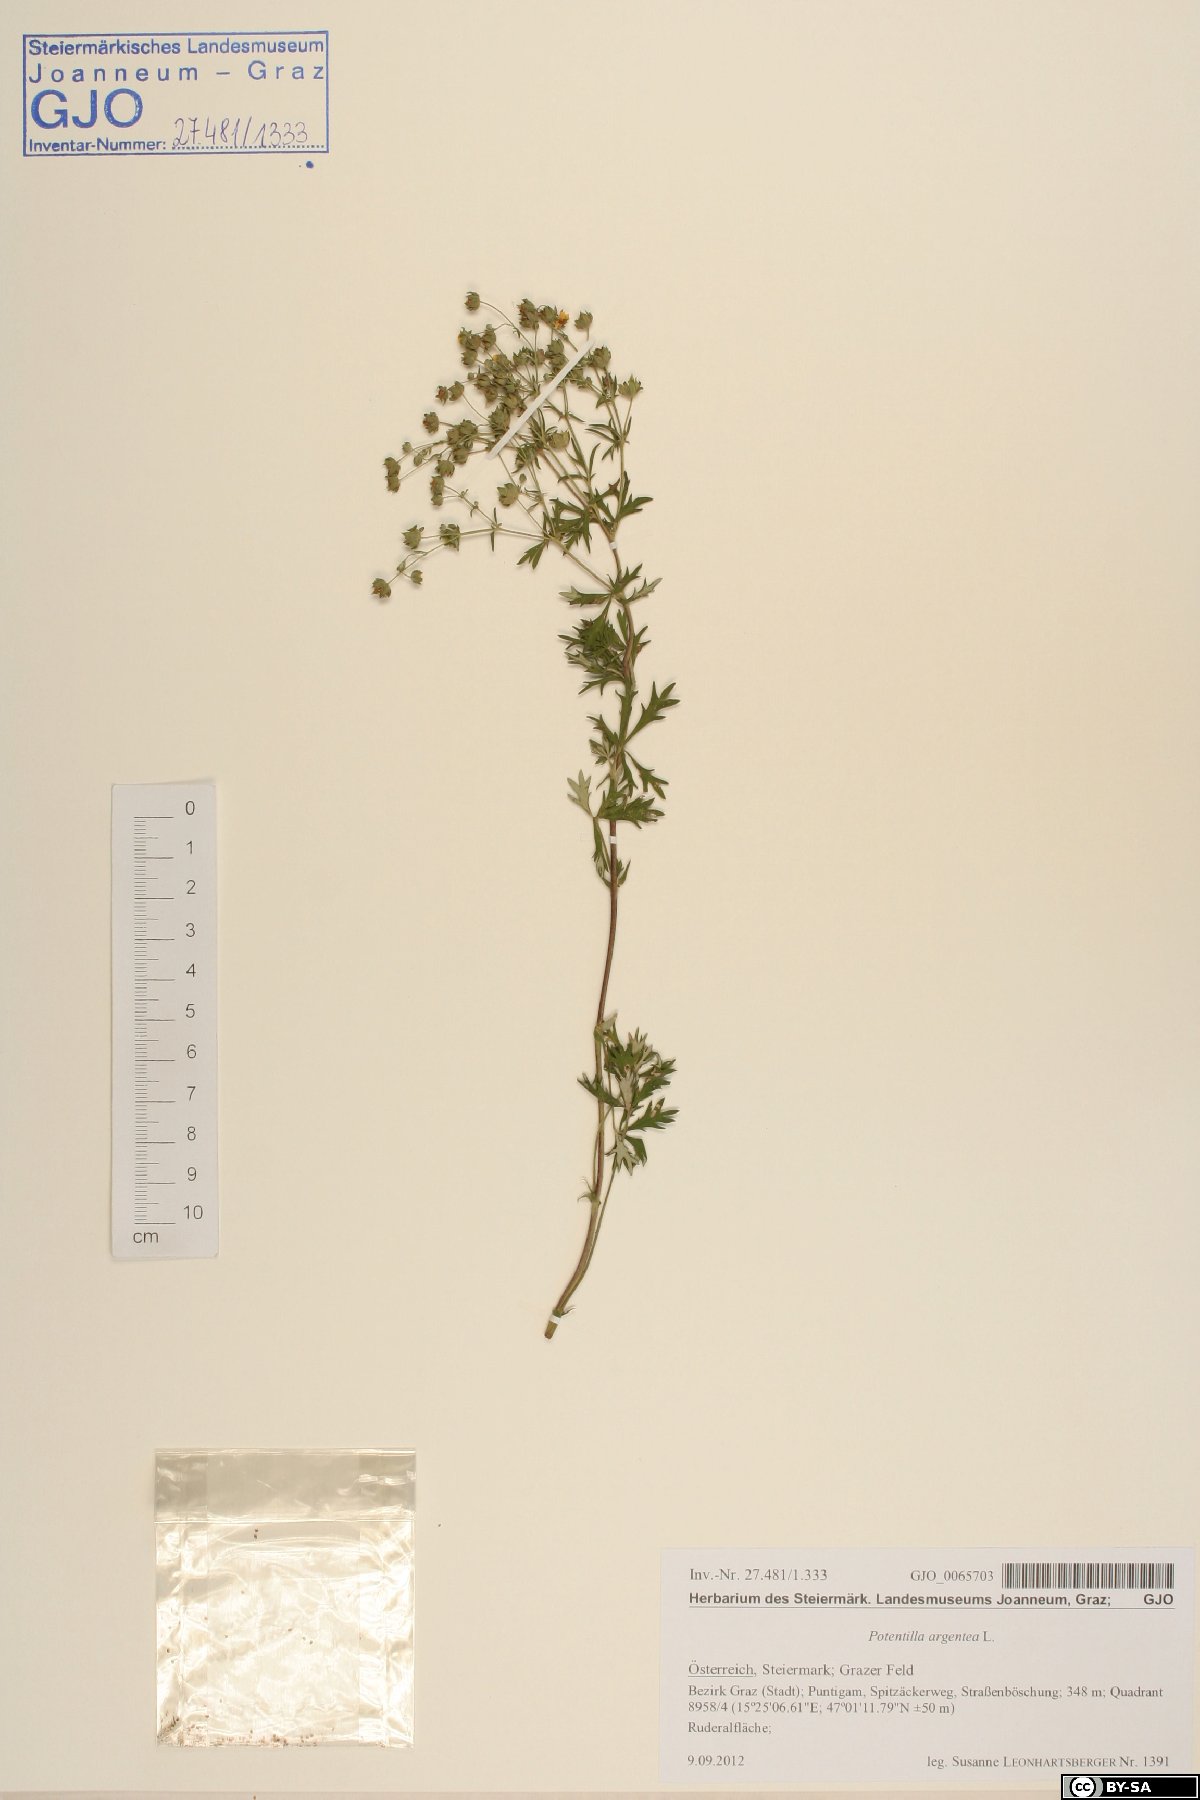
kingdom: Plantae
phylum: Tracheophyta
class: Magnoliopsida
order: Rosales
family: Rosaceae
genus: Potentilla
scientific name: Potentilla argentea
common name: Hoary cinquefoil
